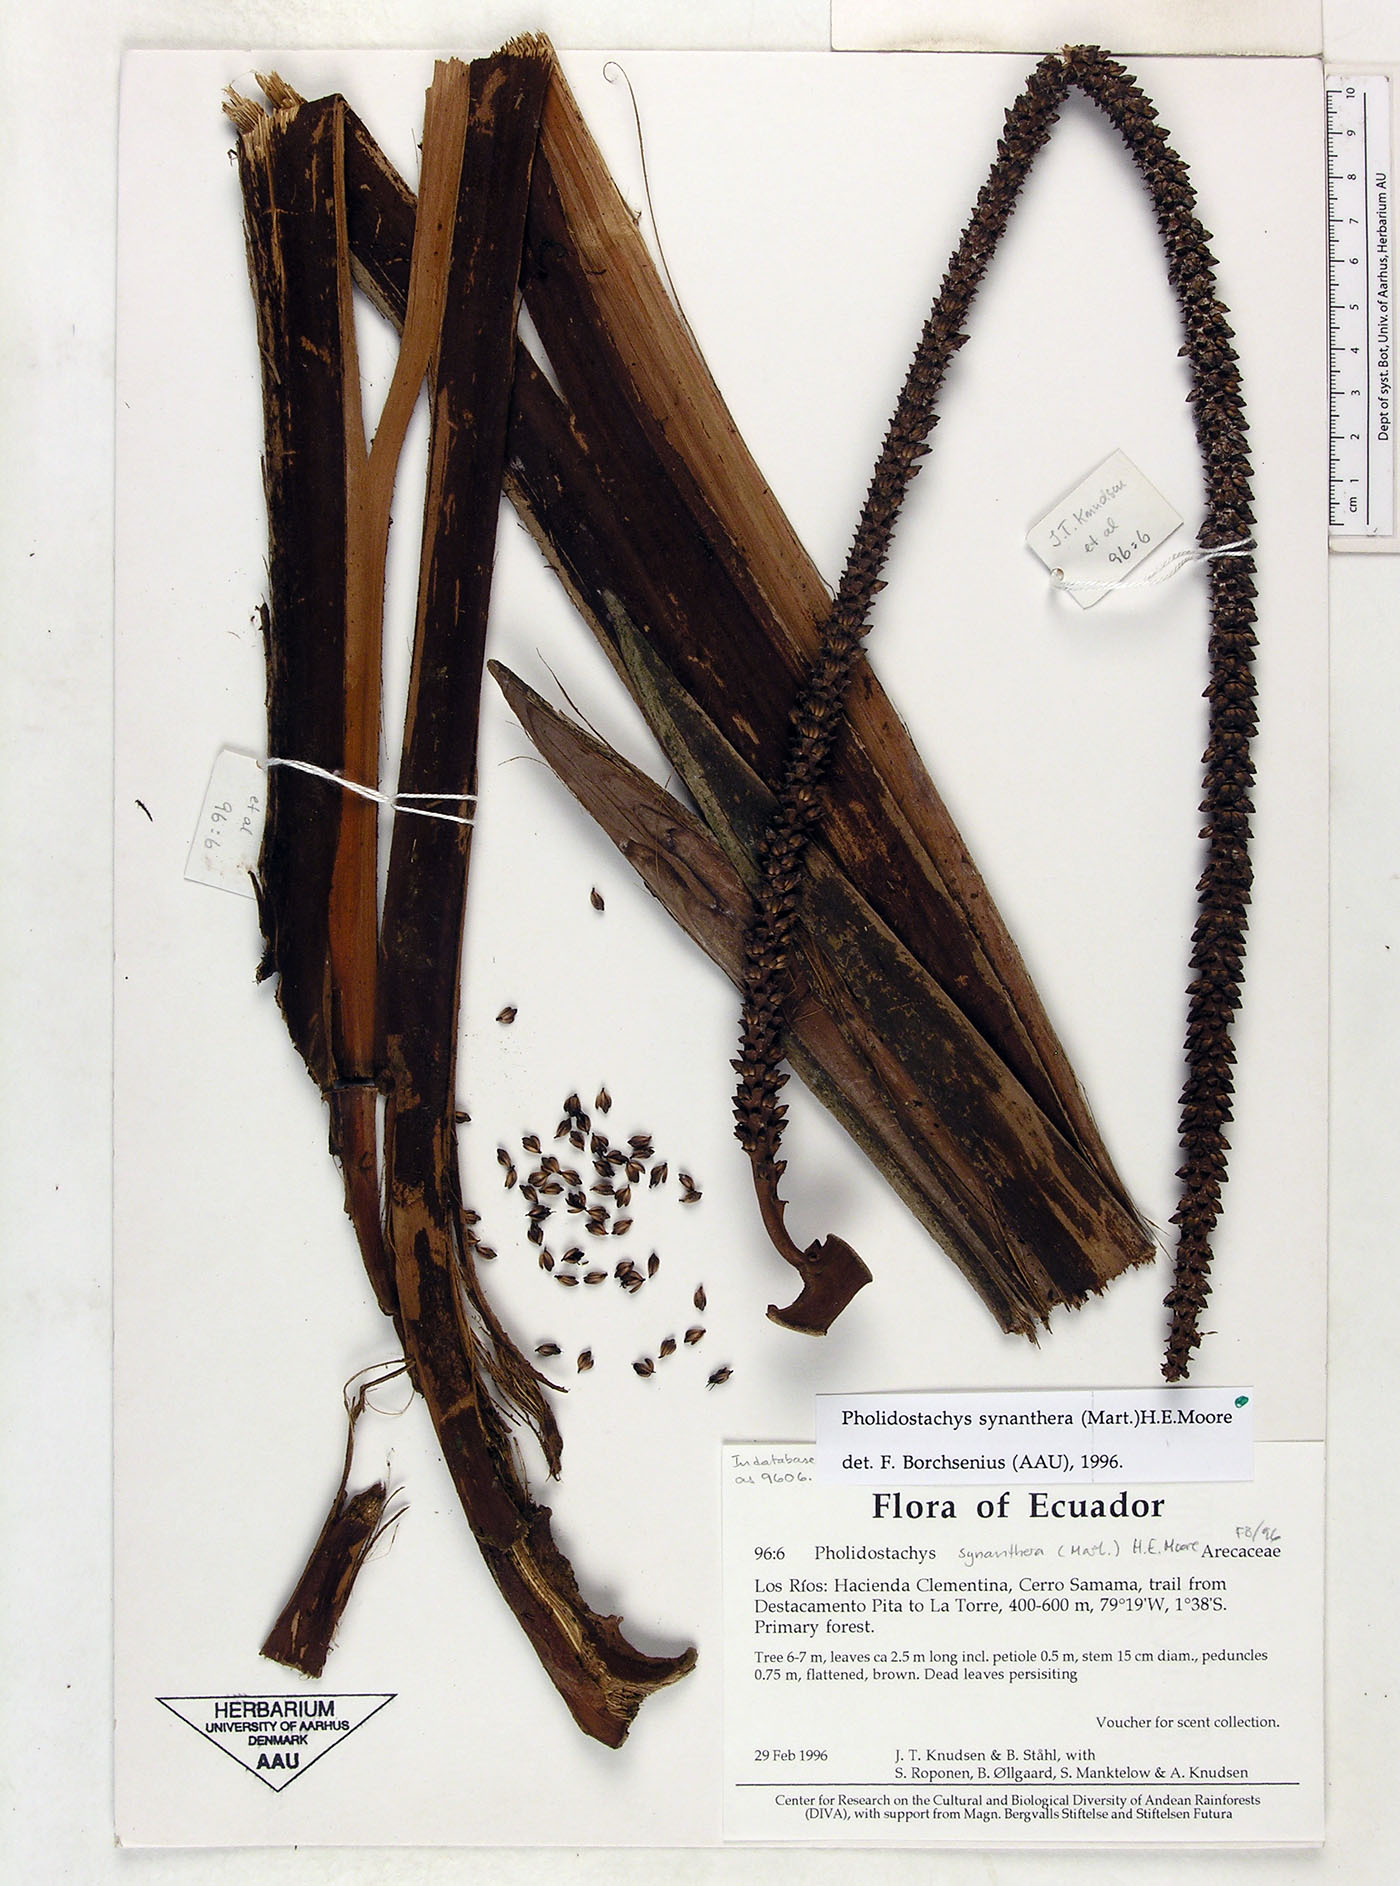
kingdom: Plantae
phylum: Tracheophyta
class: Liliopsida
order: Arecales
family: Arecaceae
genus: Pholidostachys
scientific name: Pholidostachys occidentalis
